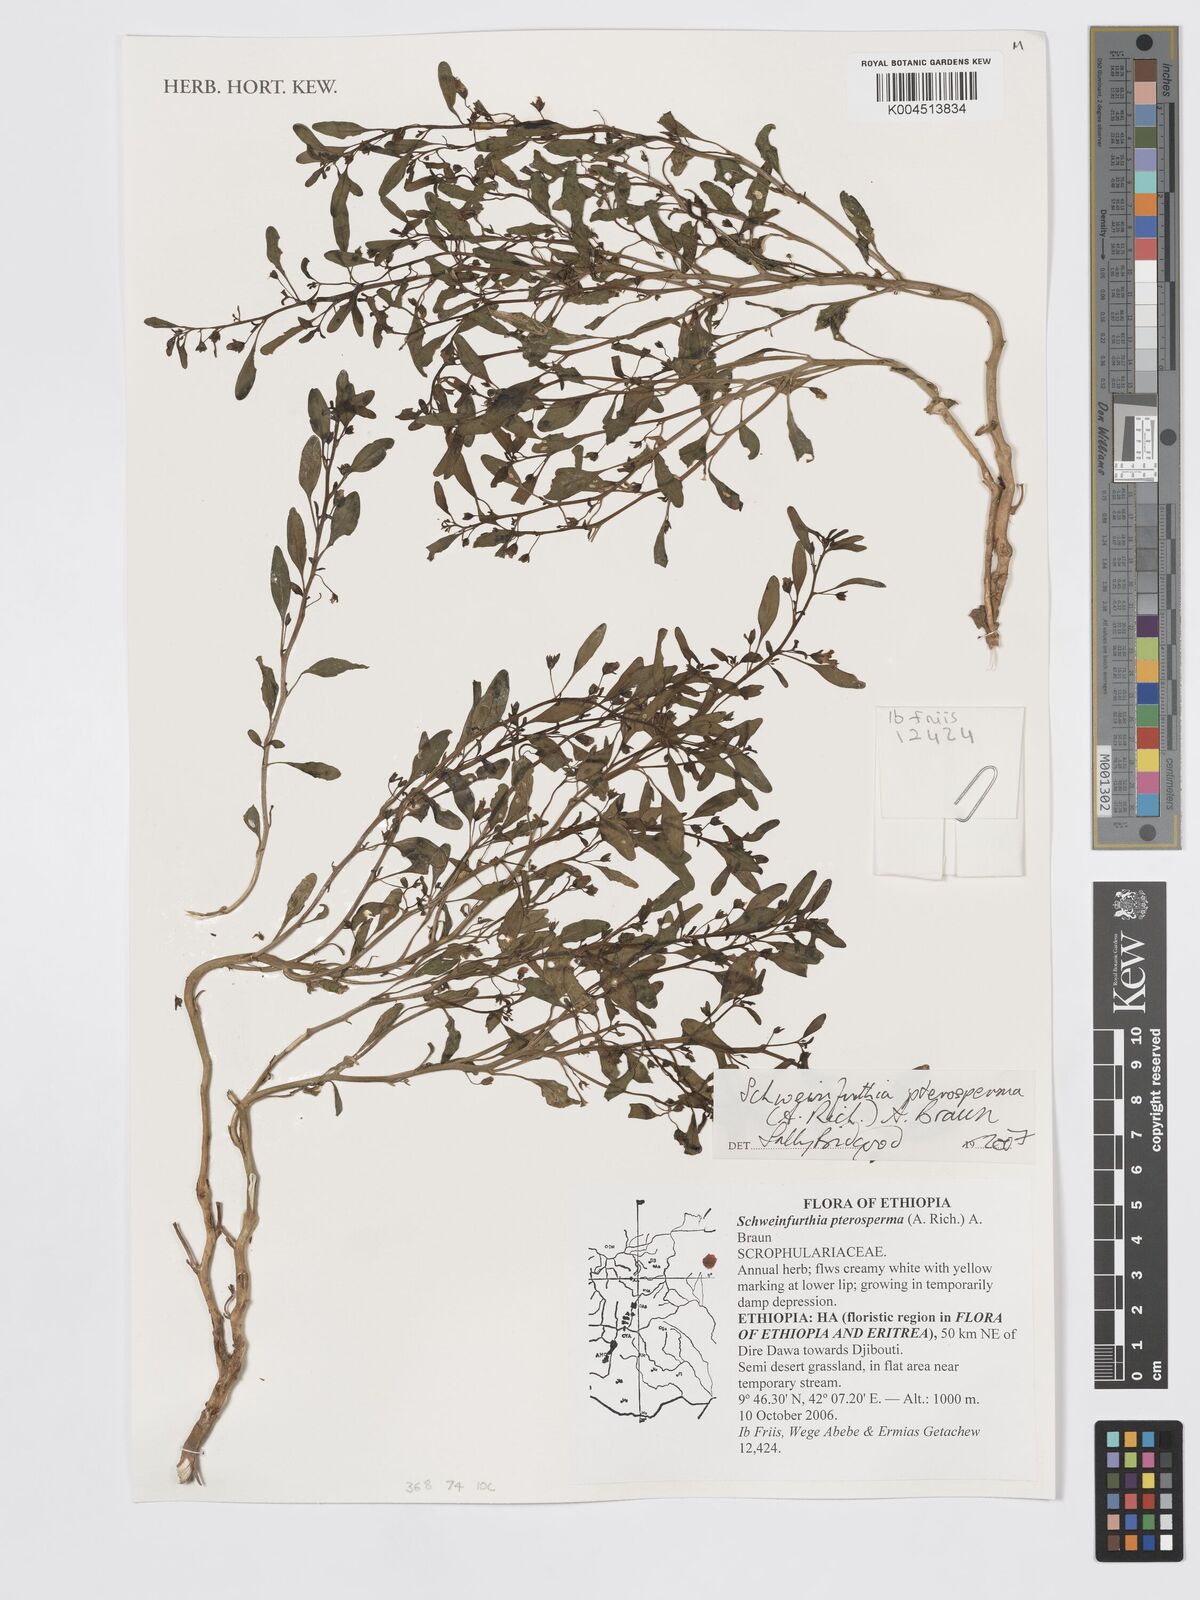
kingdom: Plantae
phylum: Tracheophyta
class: Magnoliopsida
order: Lamiales
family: Plantaginaceae
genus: Schweinfurthia
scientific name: Schweinfurthia pterosperma
